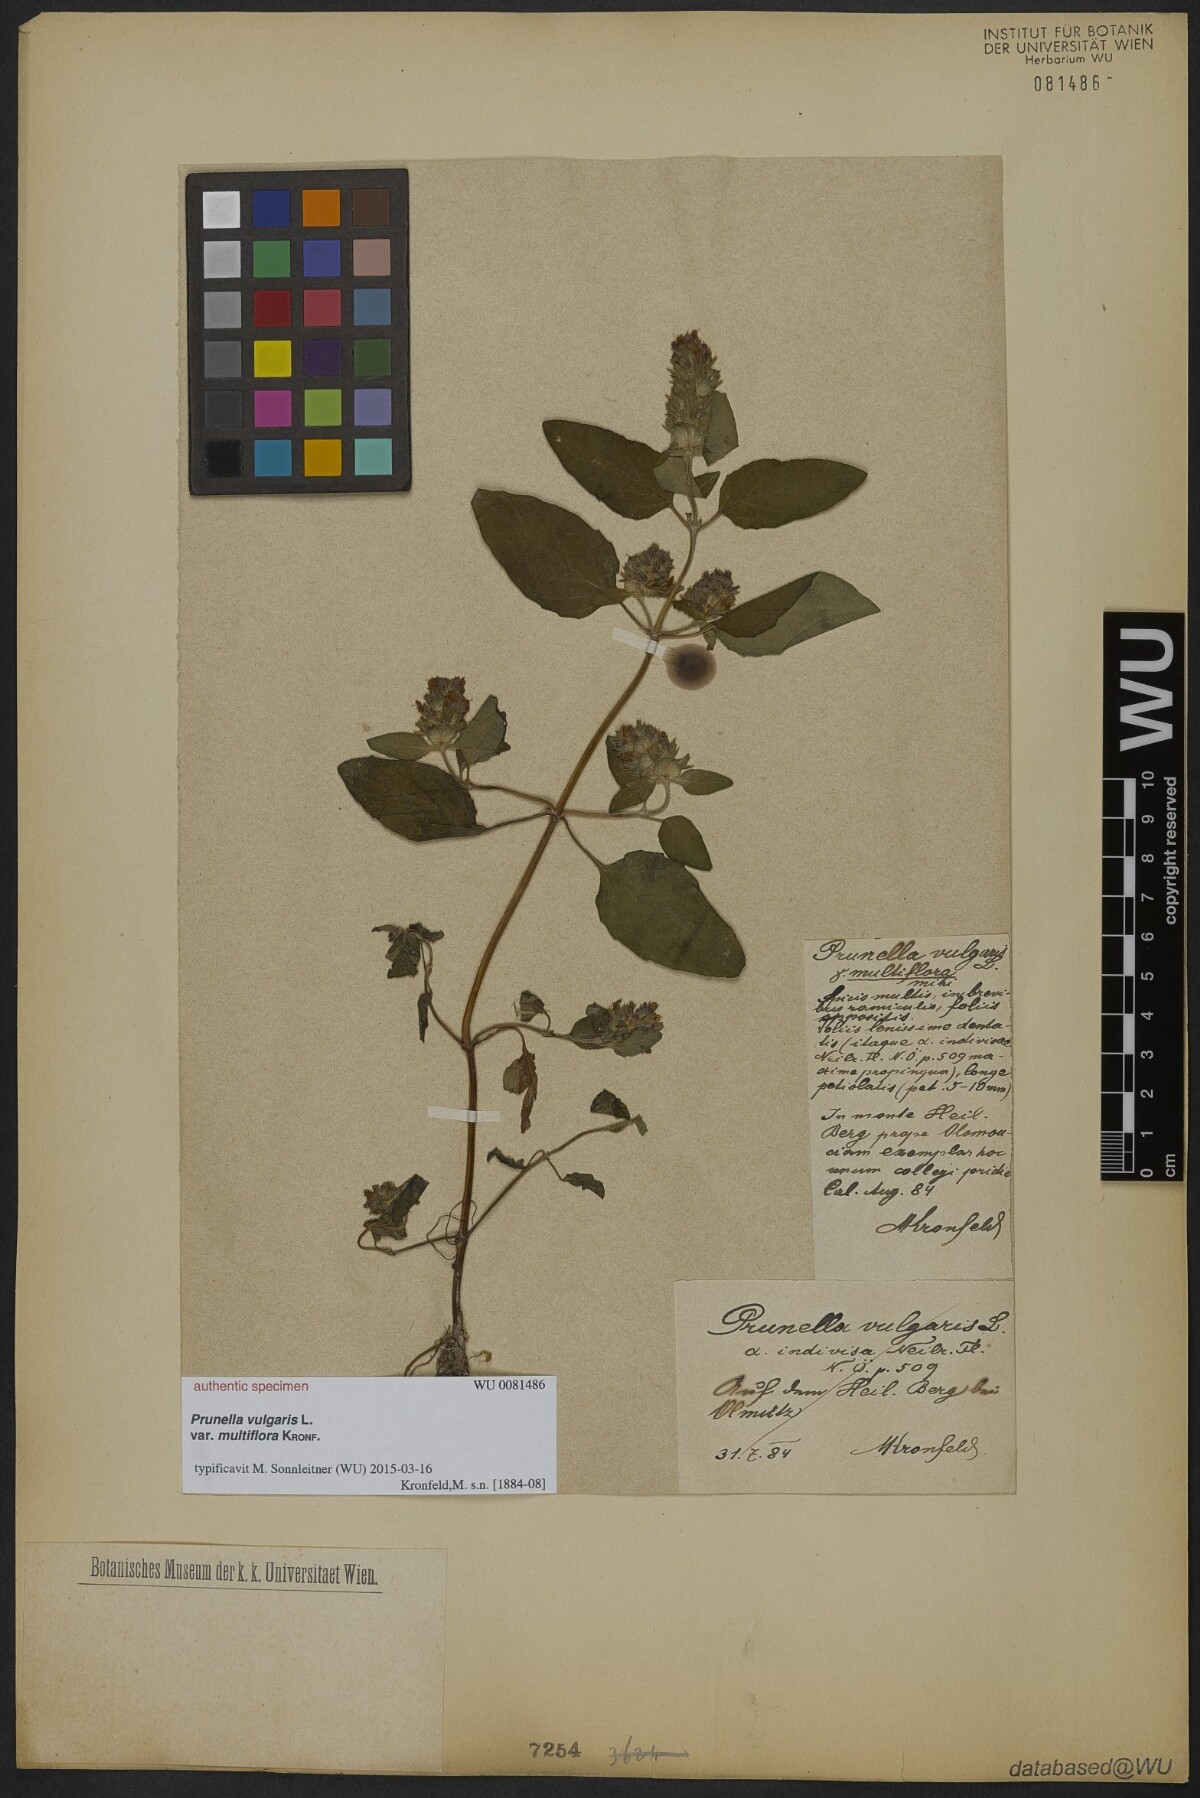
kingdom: Plantae
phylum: Tracheophyta
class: Magnoliopsida
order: Lamiales
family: Lamiaceae
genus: Prunella
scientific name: Prunella vulgaris
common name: Heal-all
